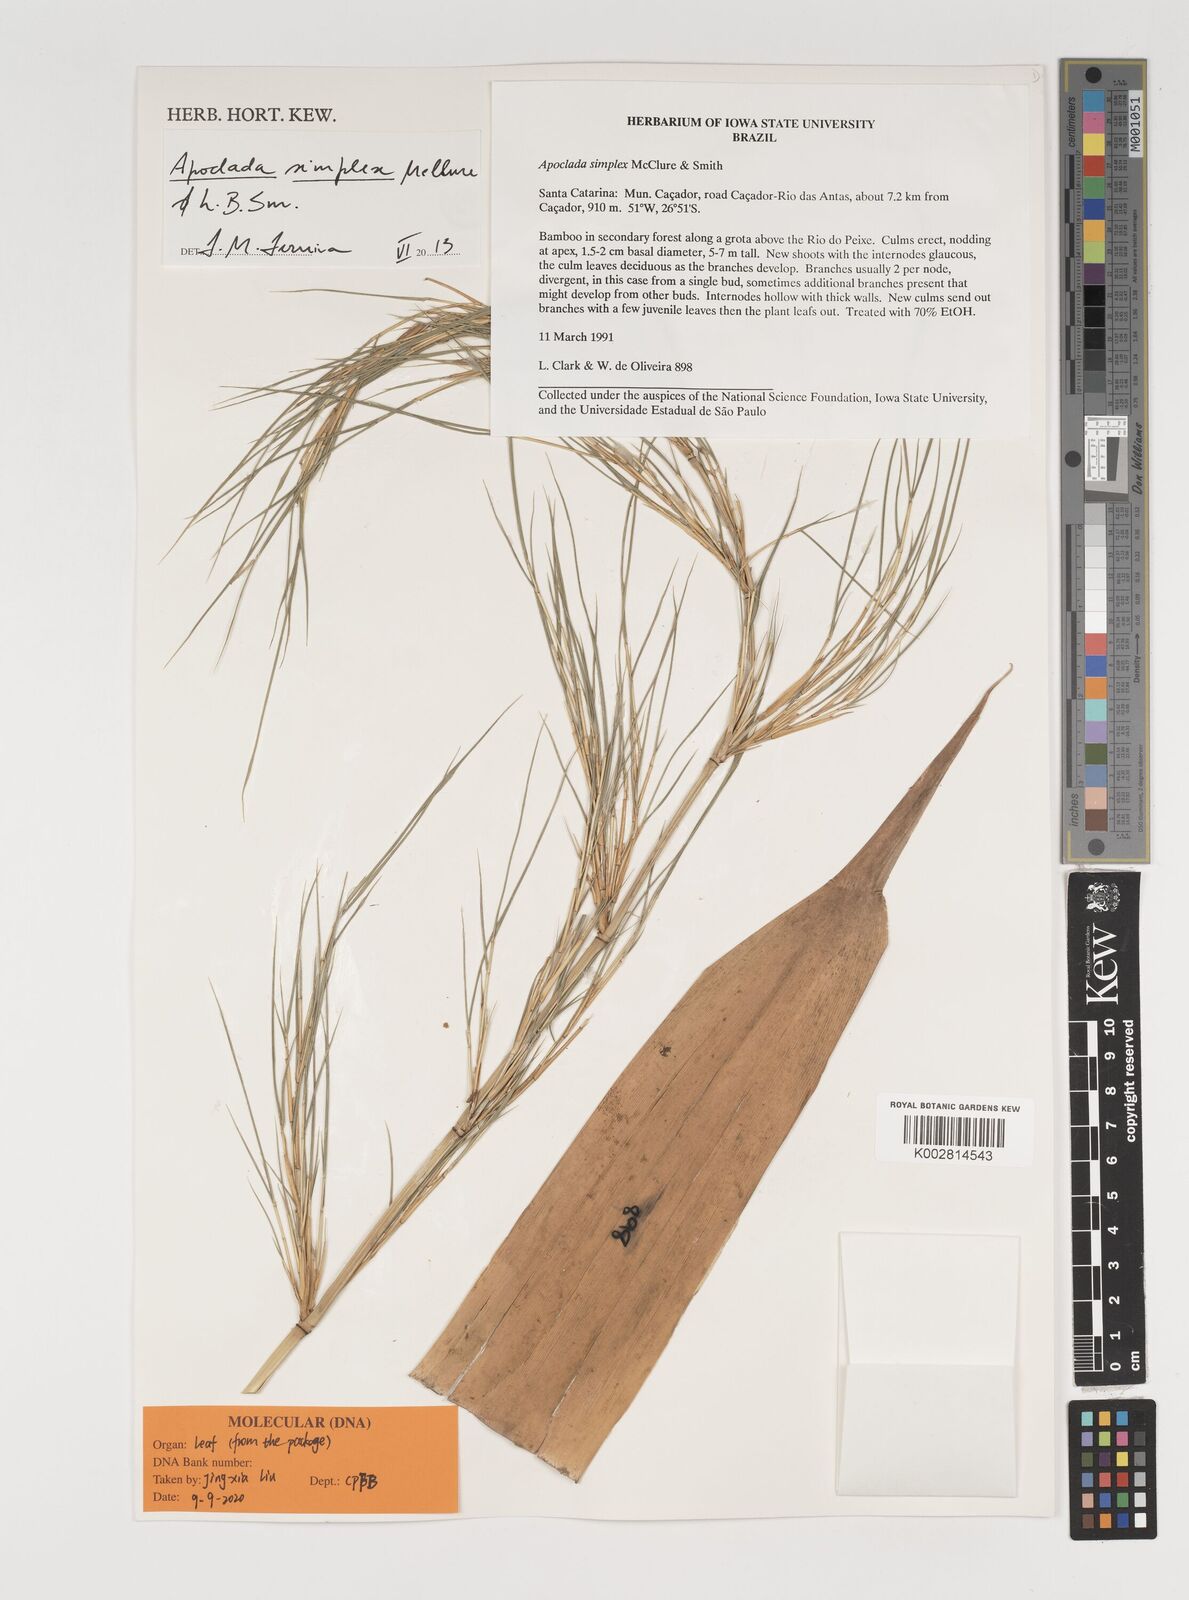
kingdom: Plantae
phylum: Tracheophyta
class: Liliopsida
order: Poales
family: Poaceae
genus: Apoclada
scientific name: Apoclada simplex
